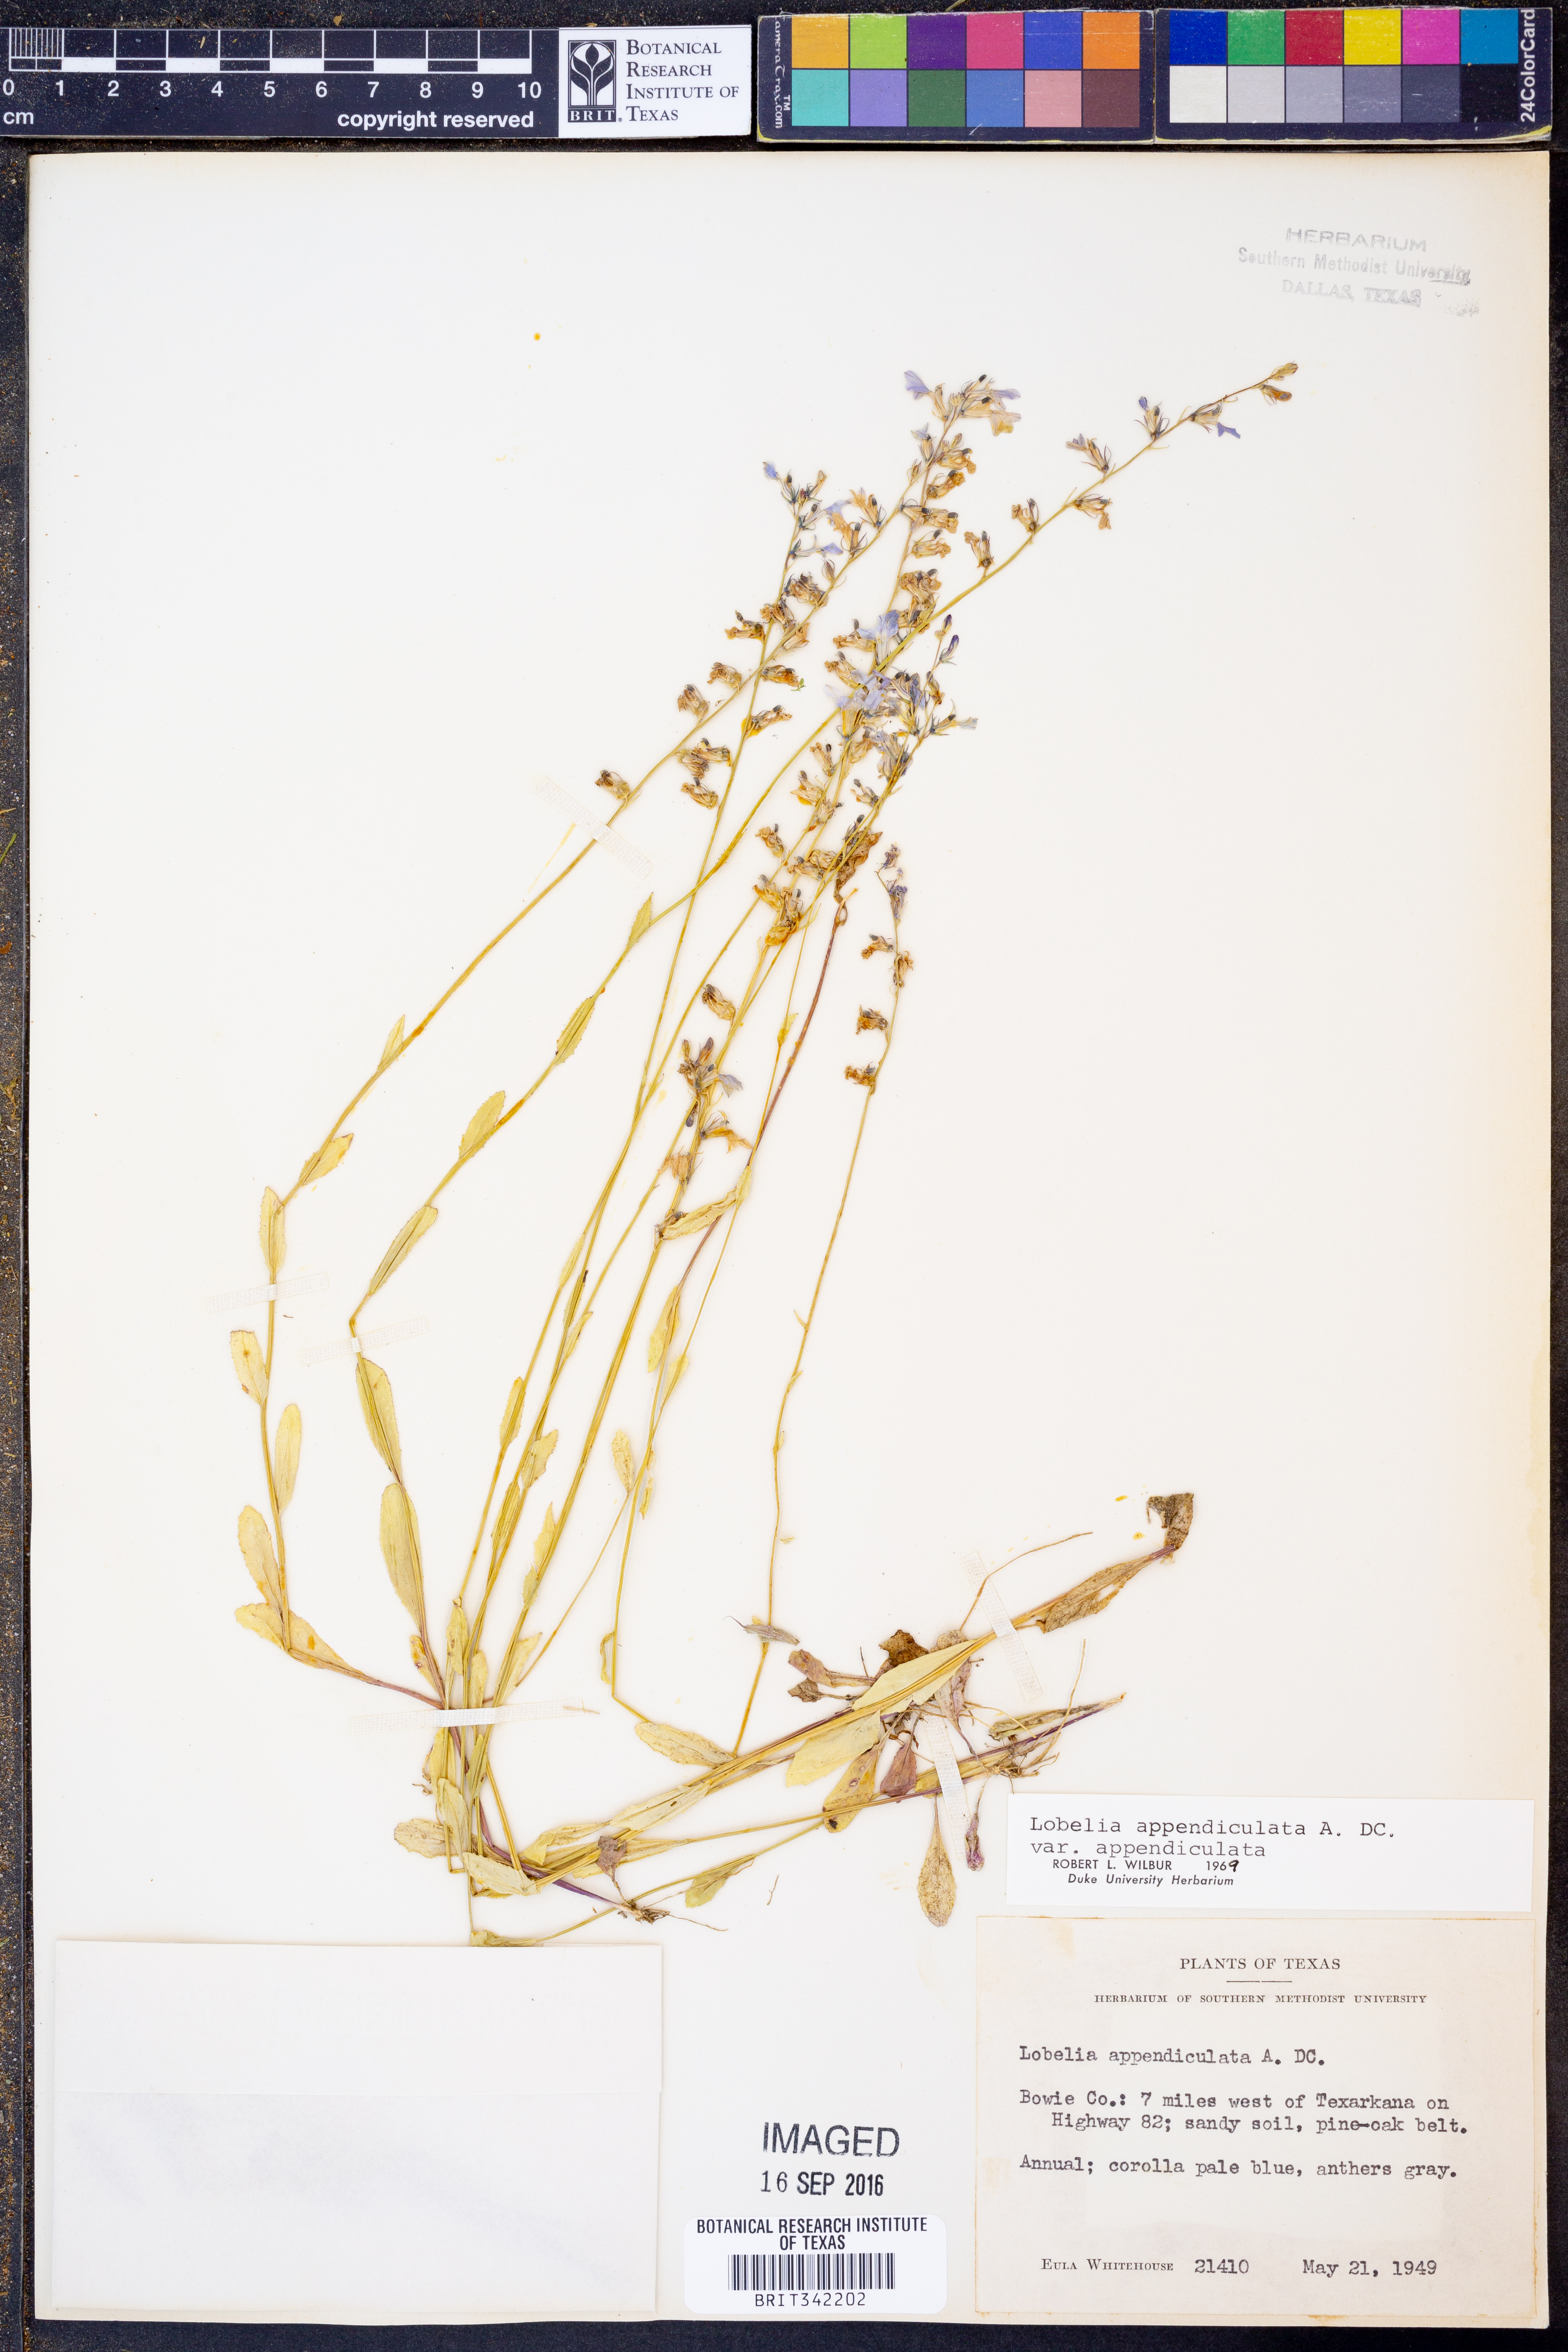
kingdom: Plantae
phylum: Tracheophyta
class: Magnoliopsida
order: Asterales
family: Campanulaceae
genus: Lobelia
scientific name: Lobelia appendiculata
